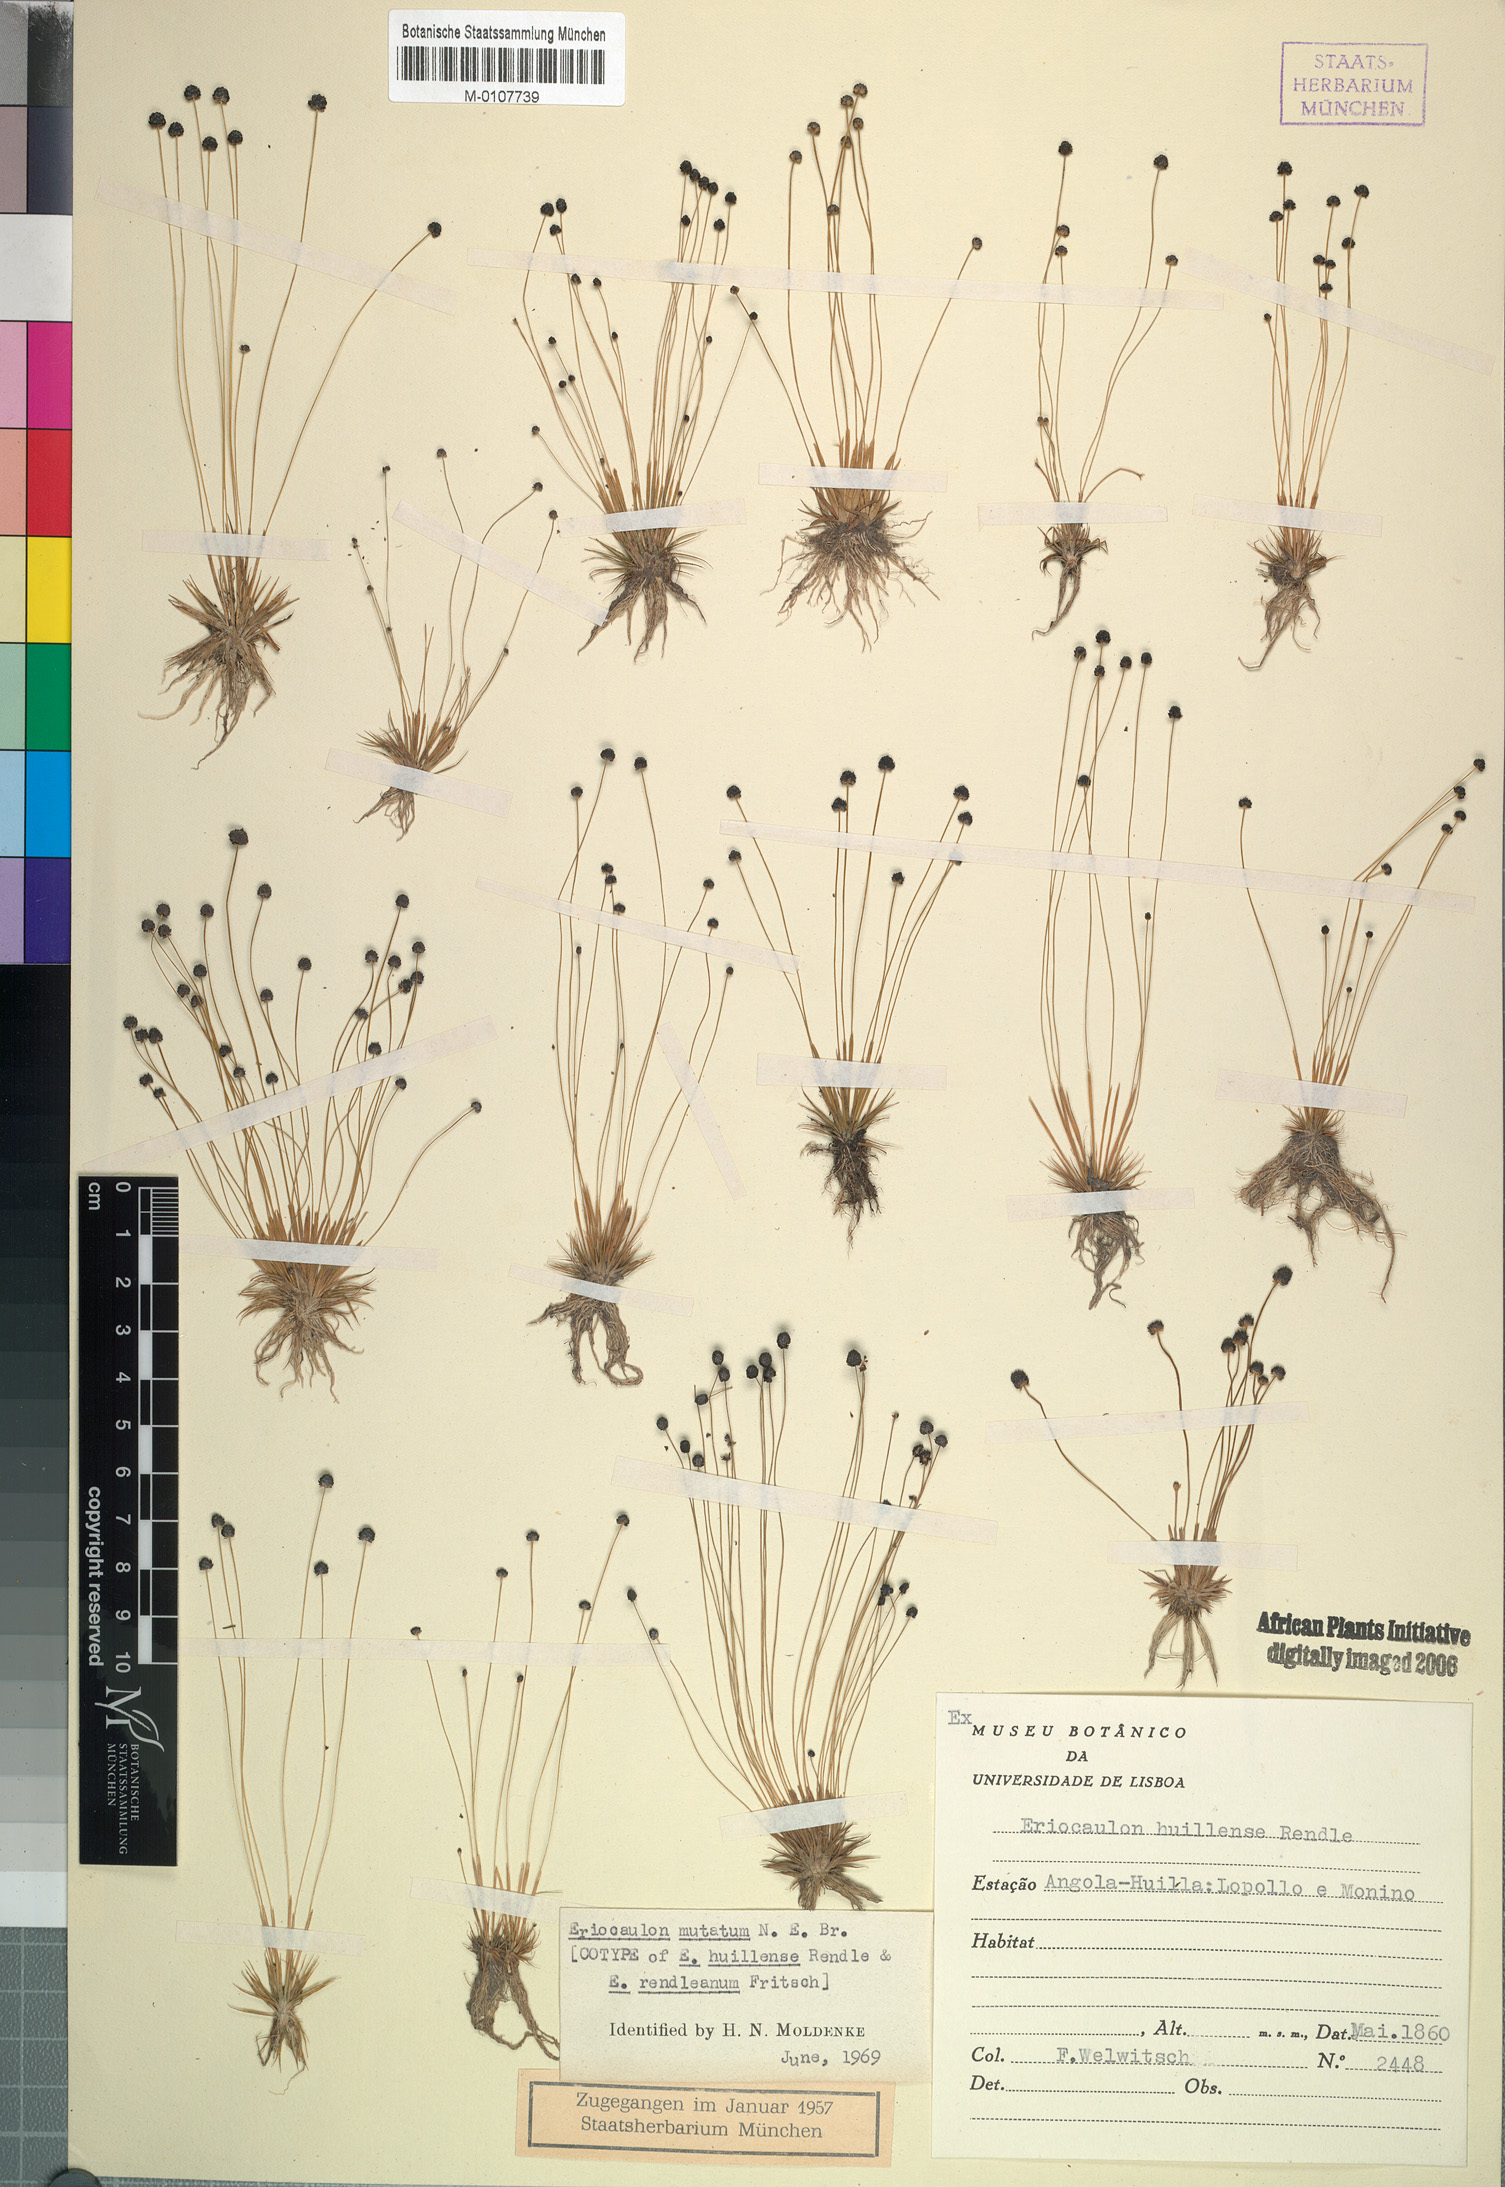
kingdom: Plantae
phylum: Tracheophyta
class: Liliopsida
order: Poales
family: Eriocaulaceae
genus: Eriocaulon
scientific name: Eriocaulon mutatum
